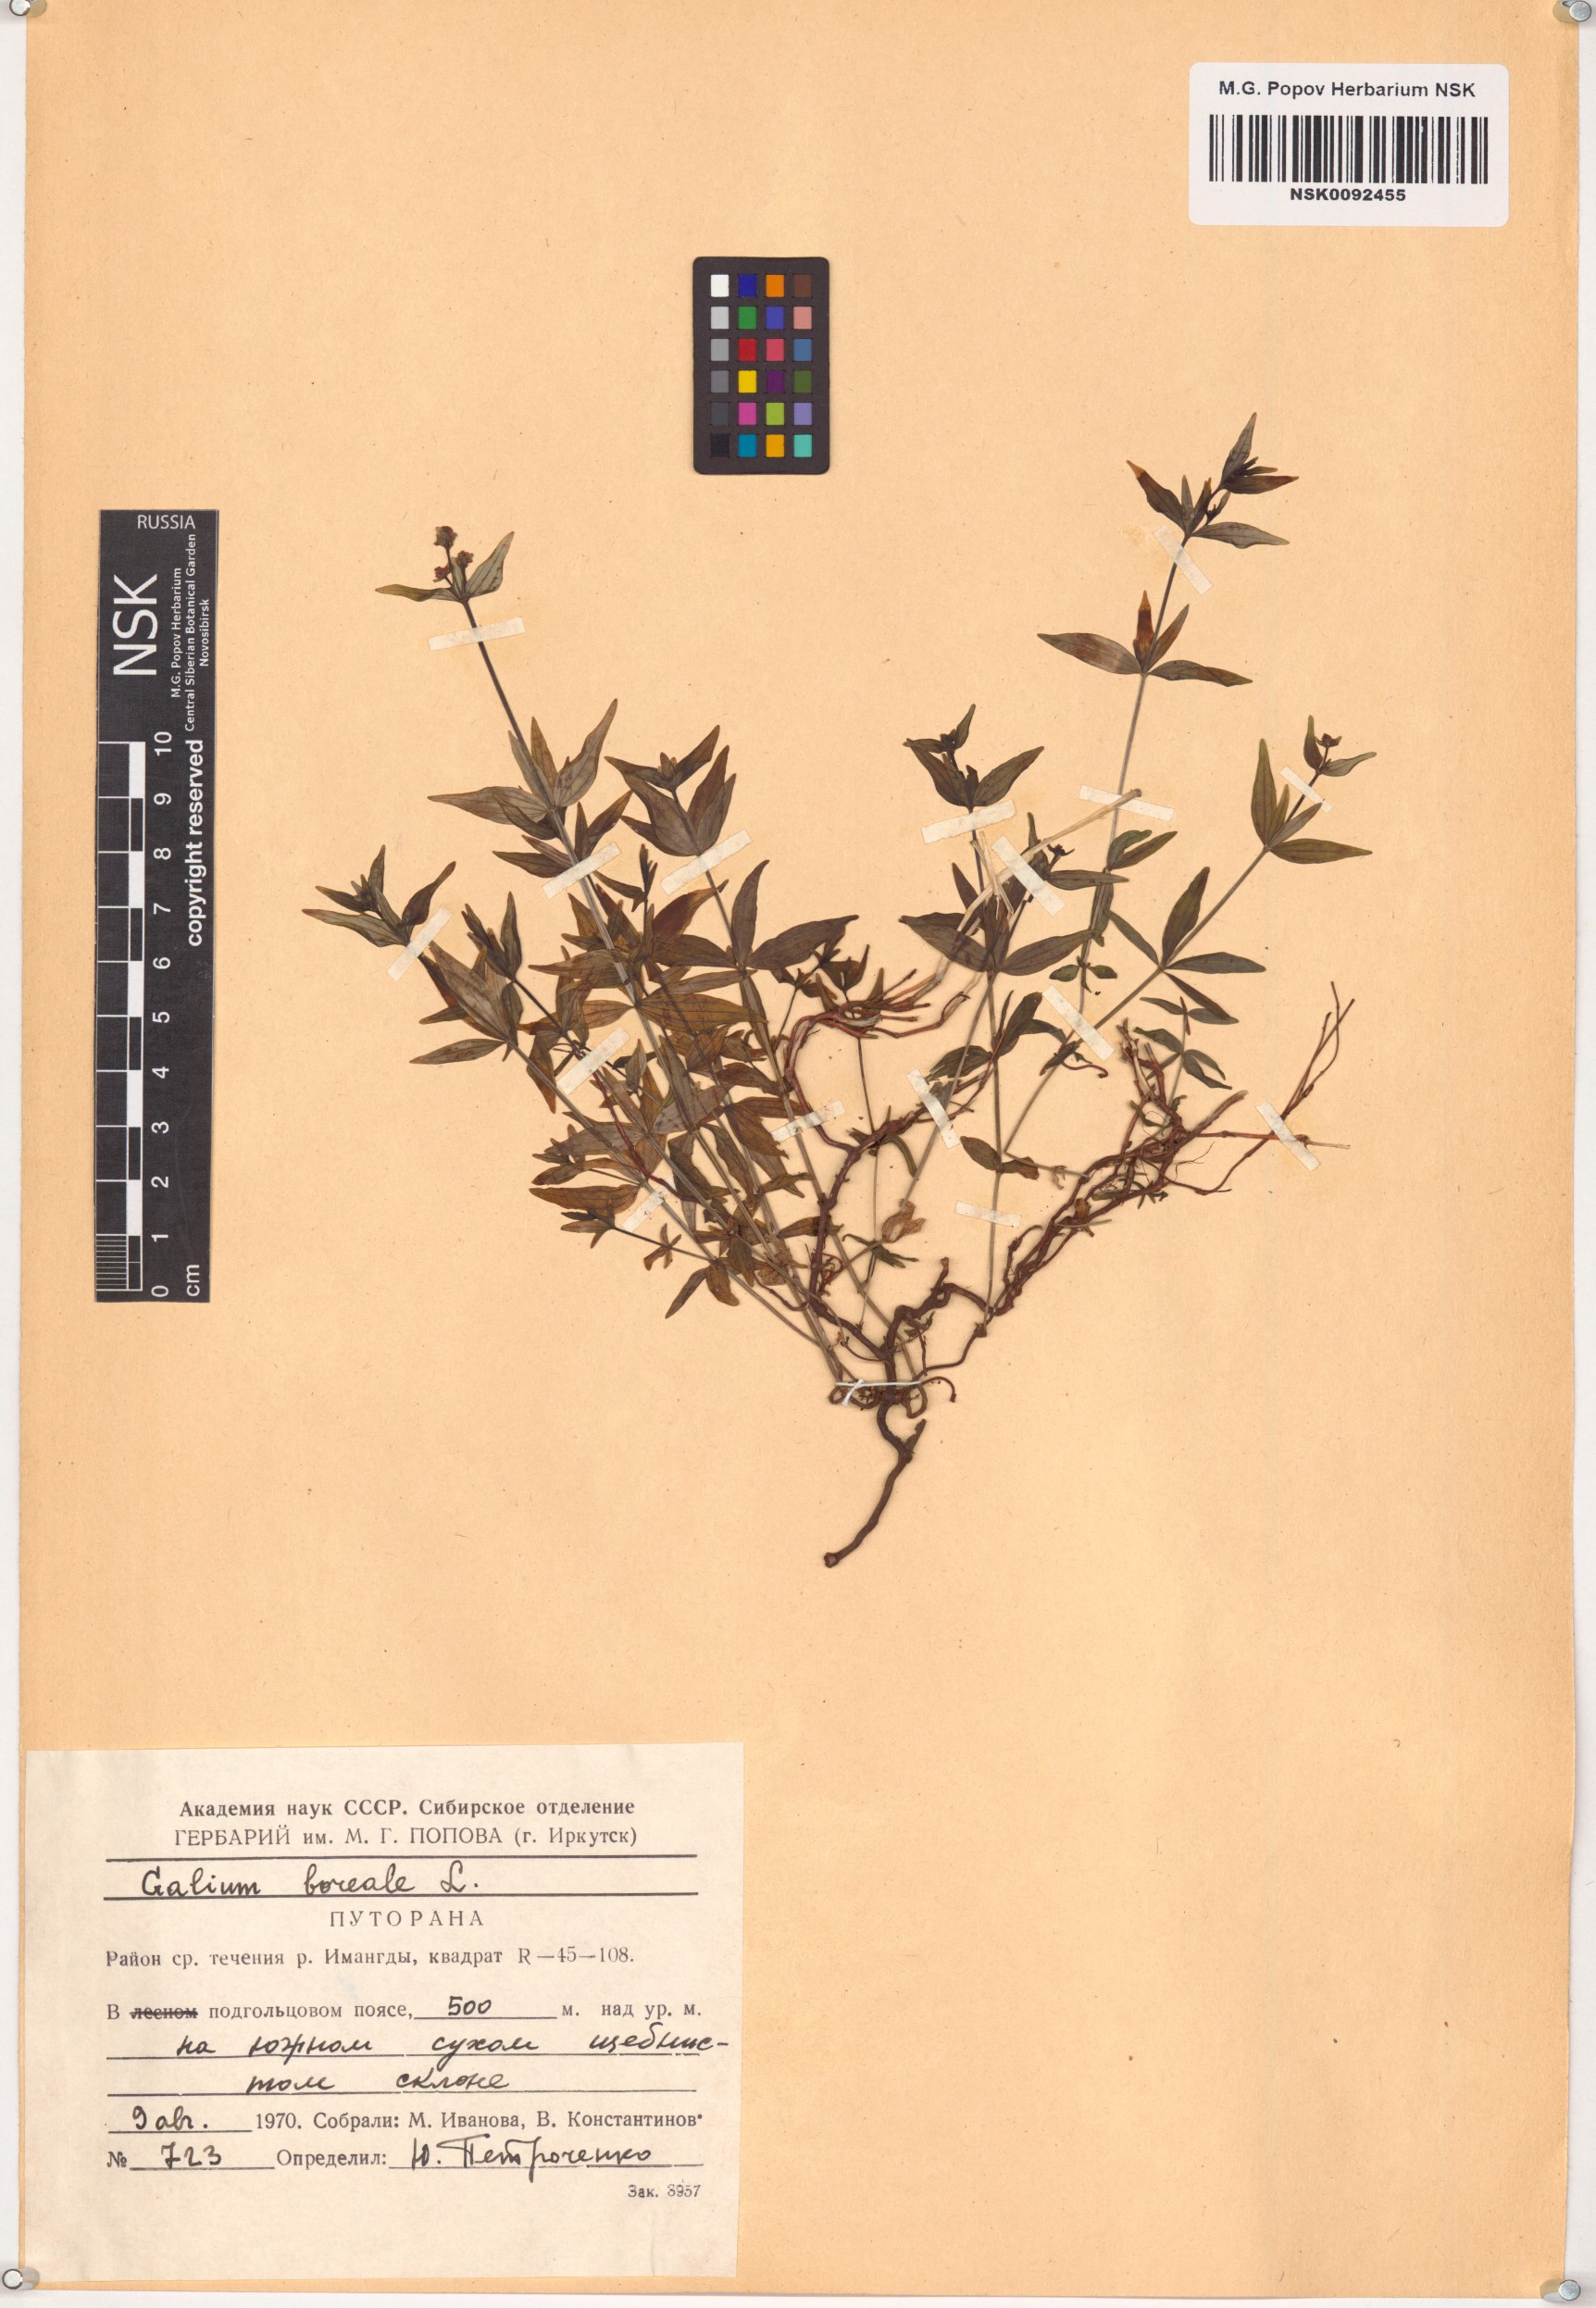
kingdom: Plantae
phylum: Tracheophyta
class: Magnoliopsida
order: Gentianales
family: Rubiaceae
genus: Galium
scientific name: Galium boreale
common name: Northern bedstraw
